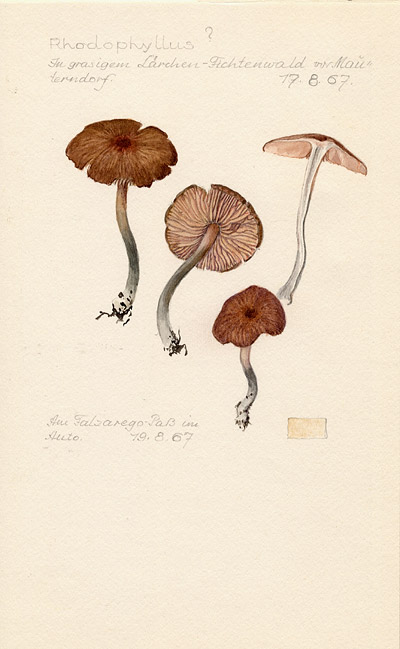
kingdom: Fungi
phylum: Basidiomycota
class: Agaricomycetes
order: Agaricales
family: Entolomataceae
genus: Entoloma
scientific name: Entoloma
